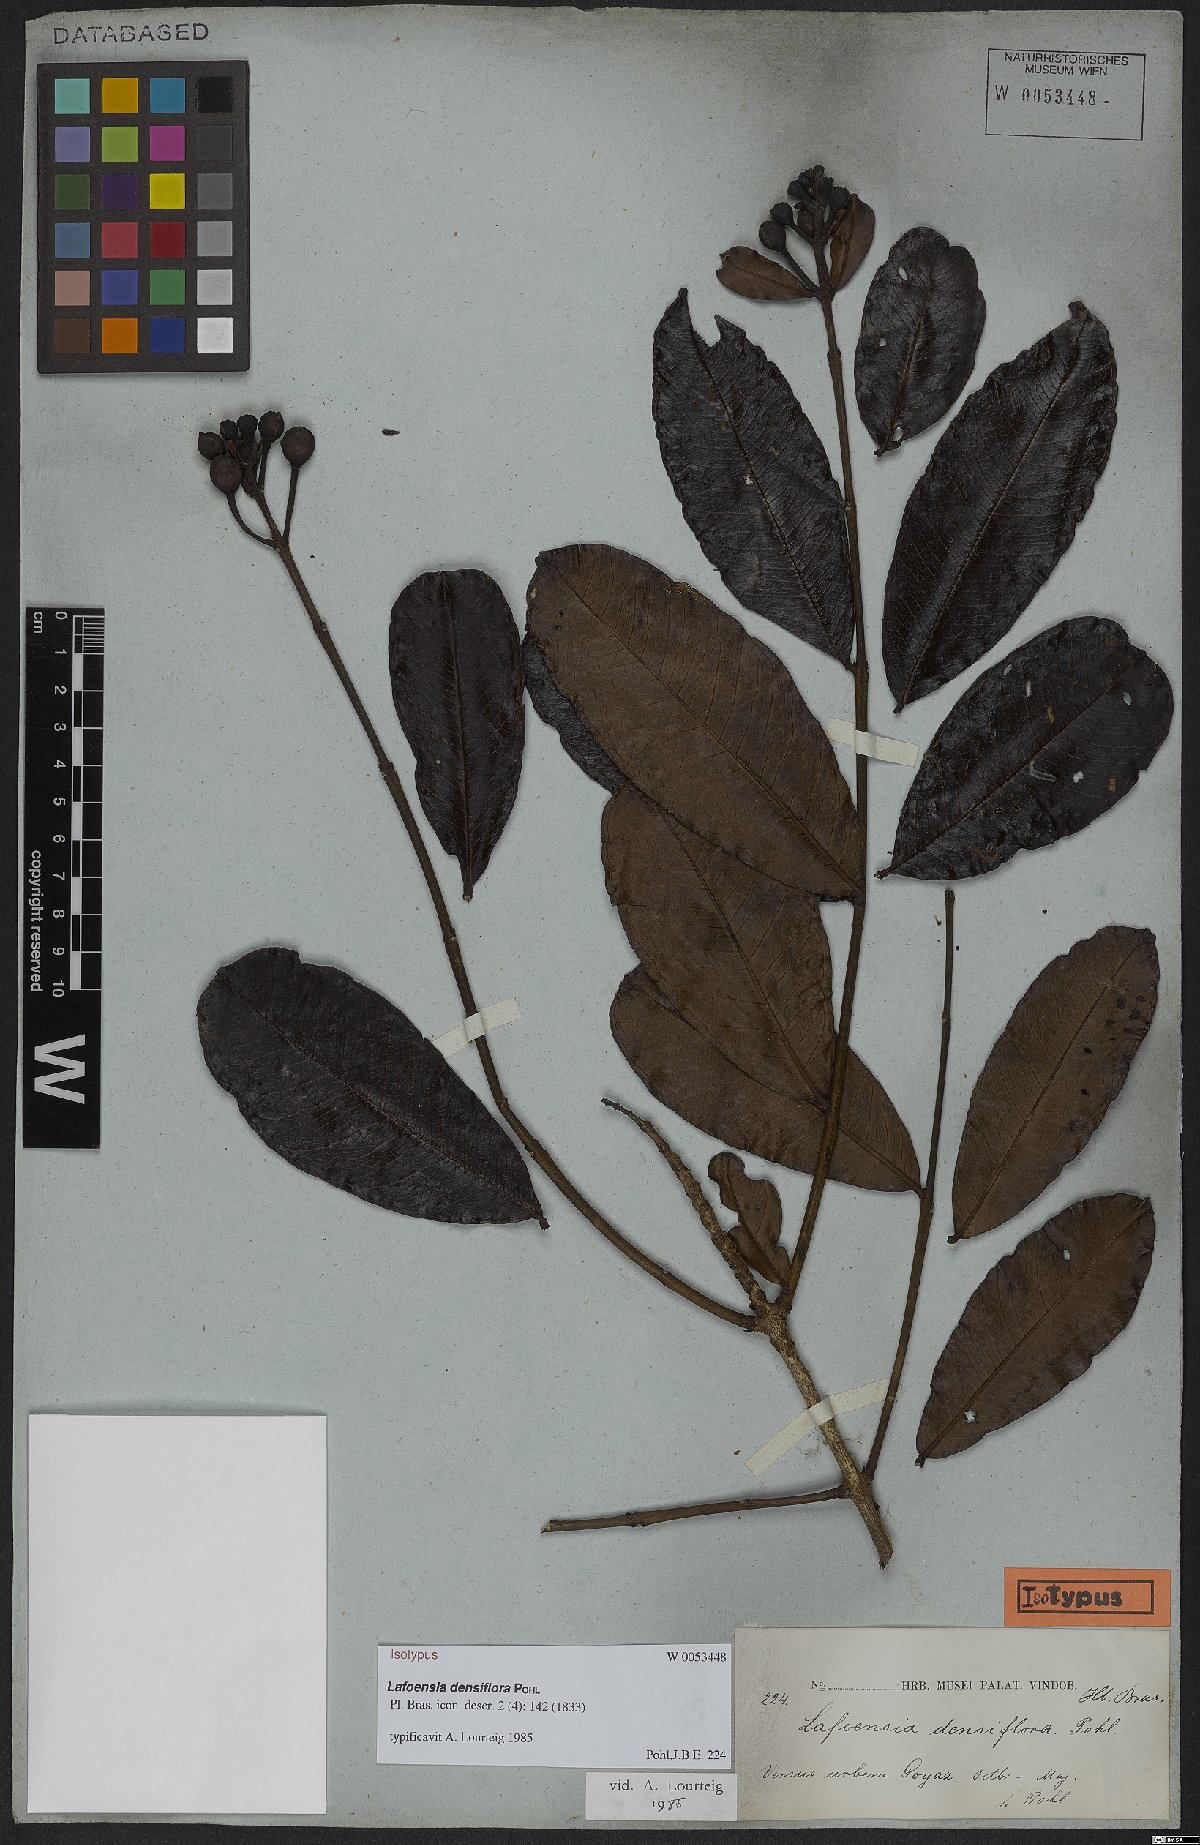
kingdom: Plantae
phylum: Tracheophyta
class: Magnoliopsida
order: Myrtales
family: Lythraceae
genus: Lafoensia
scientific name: Lafoensia vandelliana
